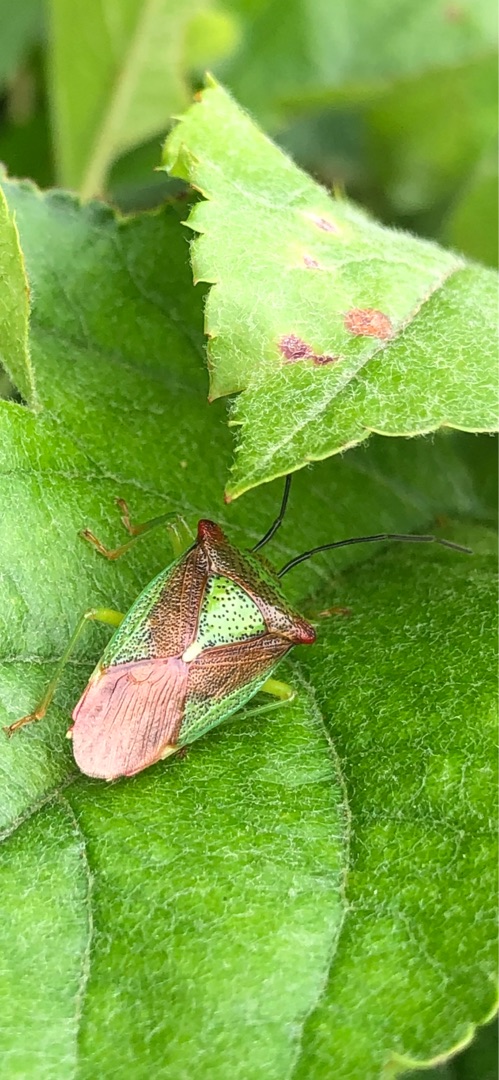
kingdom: Animalia
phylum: Arthropoda
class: Insecta
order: Hemiptera
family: Acanthosomatidae
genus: Acanthosoma
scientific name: Acanthosoma haemorrhoidale
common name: Stor løvtæge
